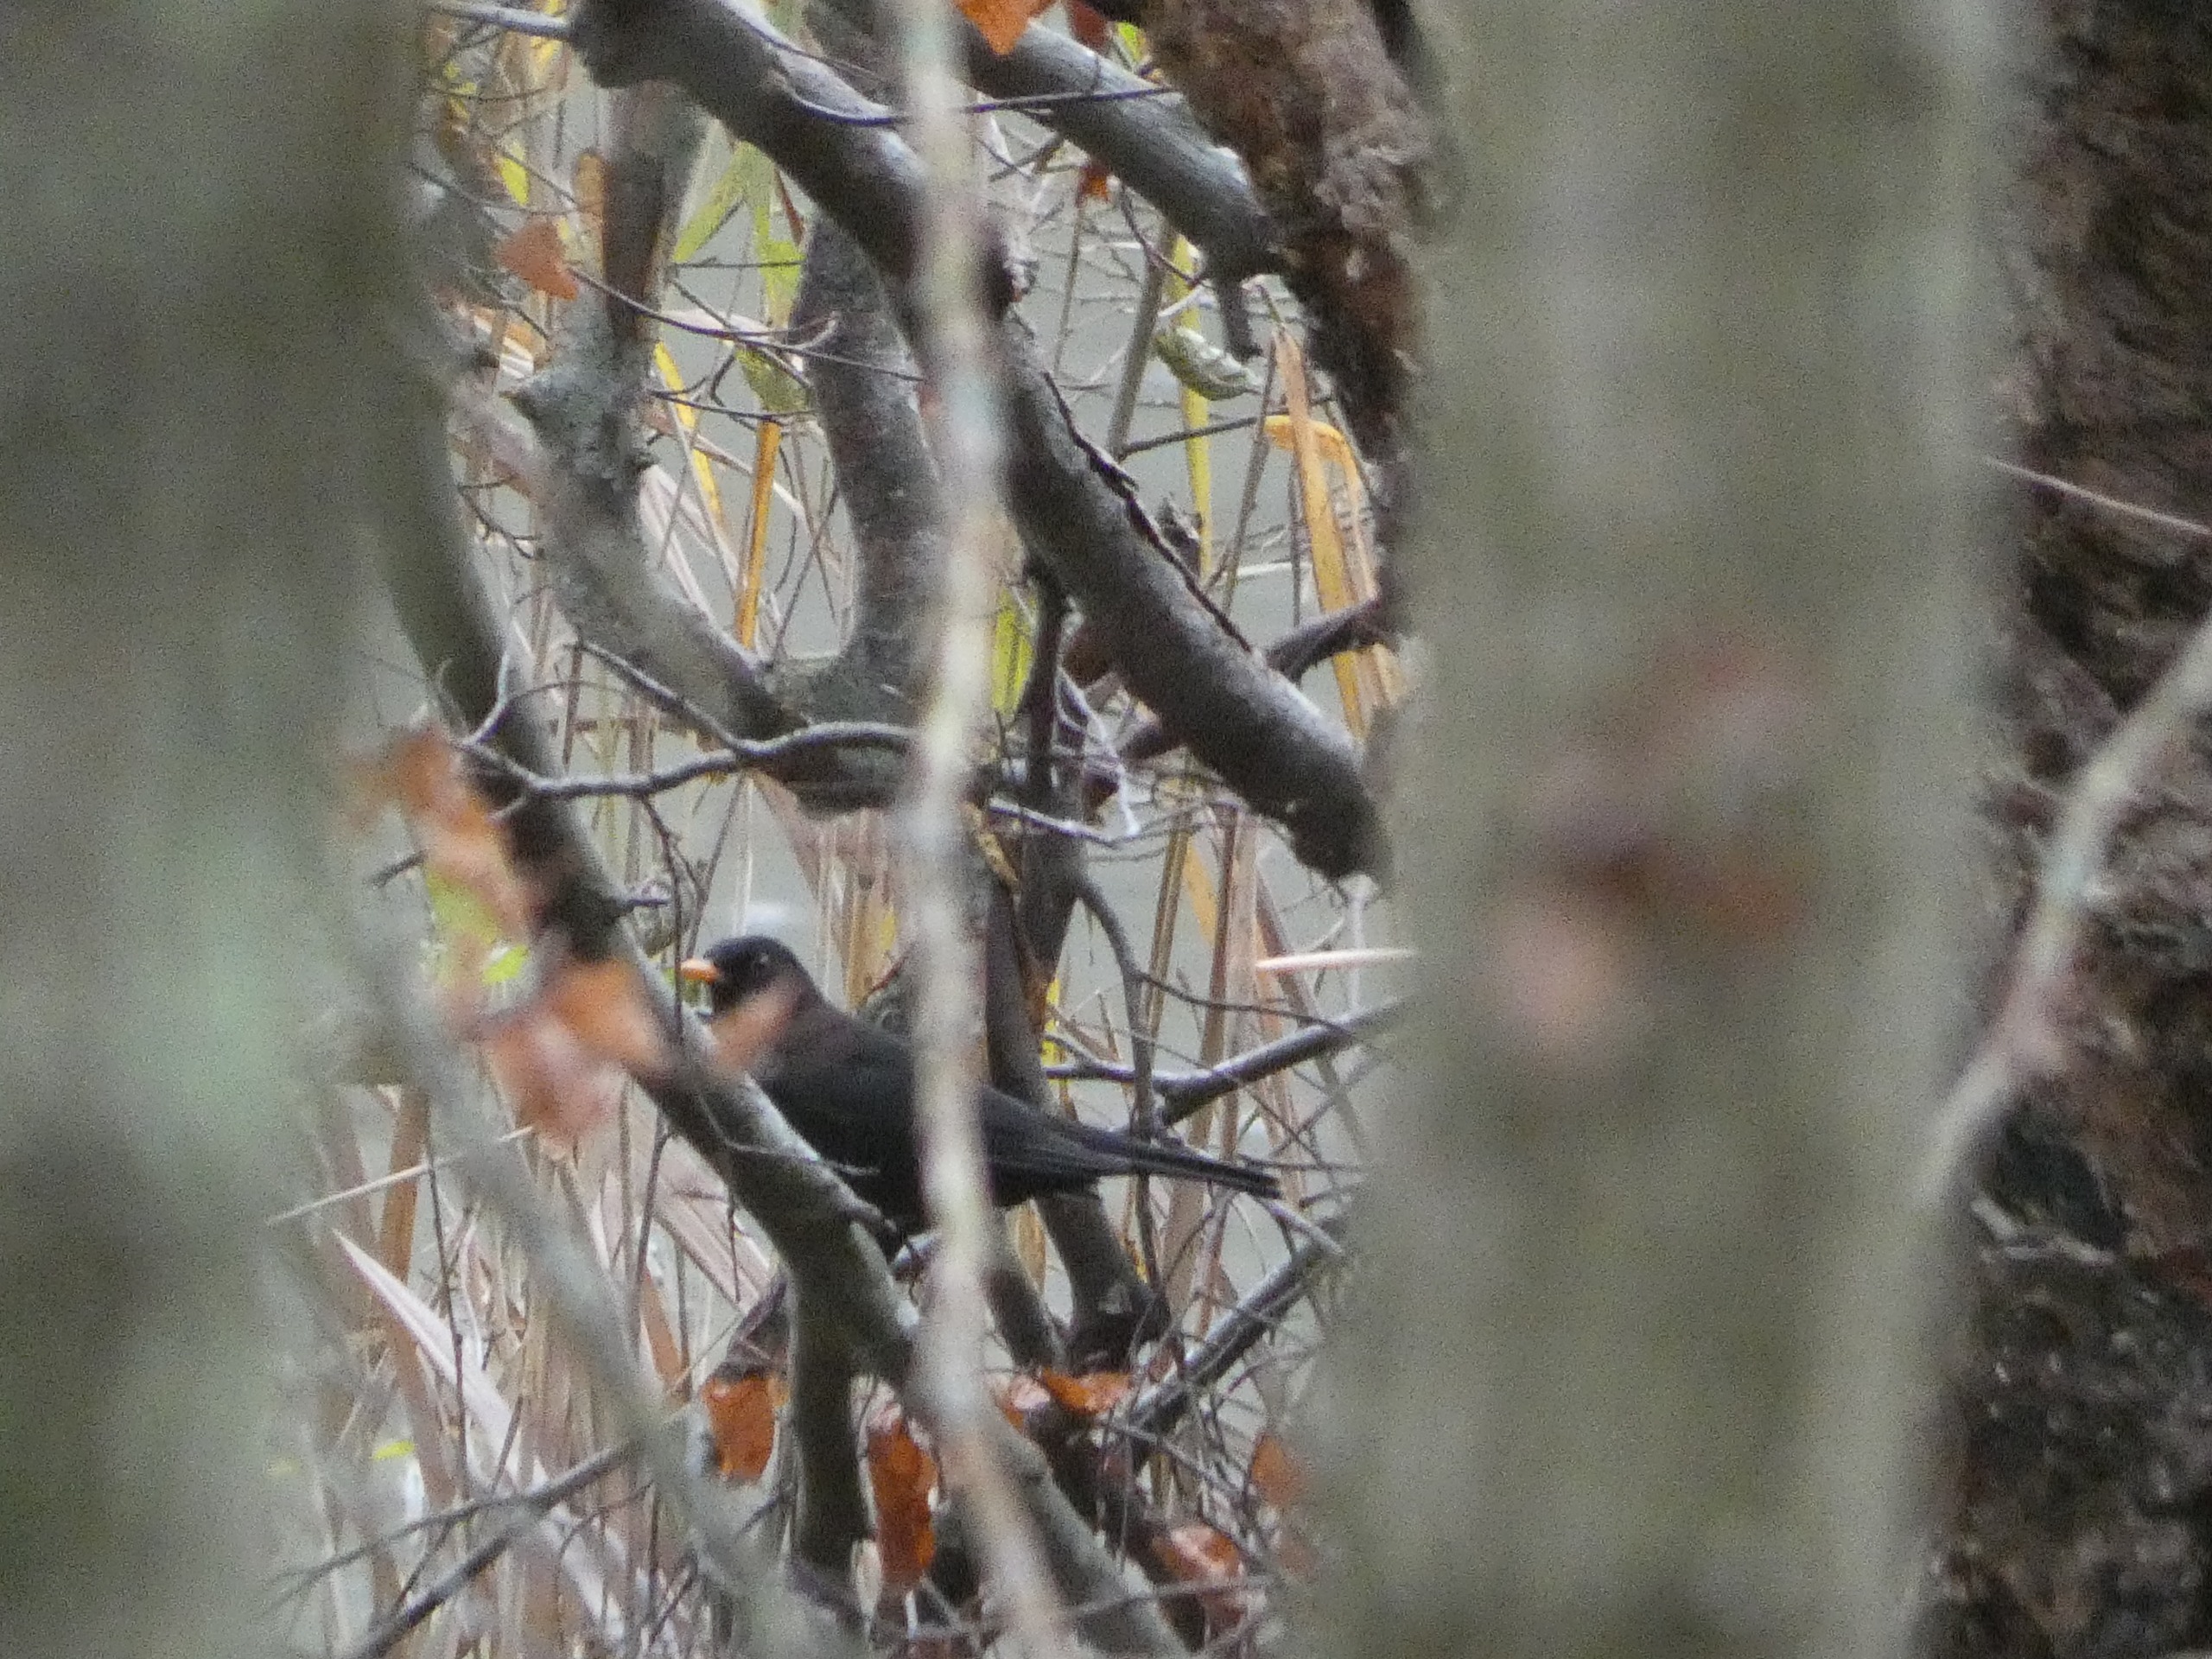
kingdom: Animalia
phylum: Chordata
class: Aves
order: Passeriformes
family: Turdidae
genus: Turdus
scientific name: Turdus merula
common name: Solsort
